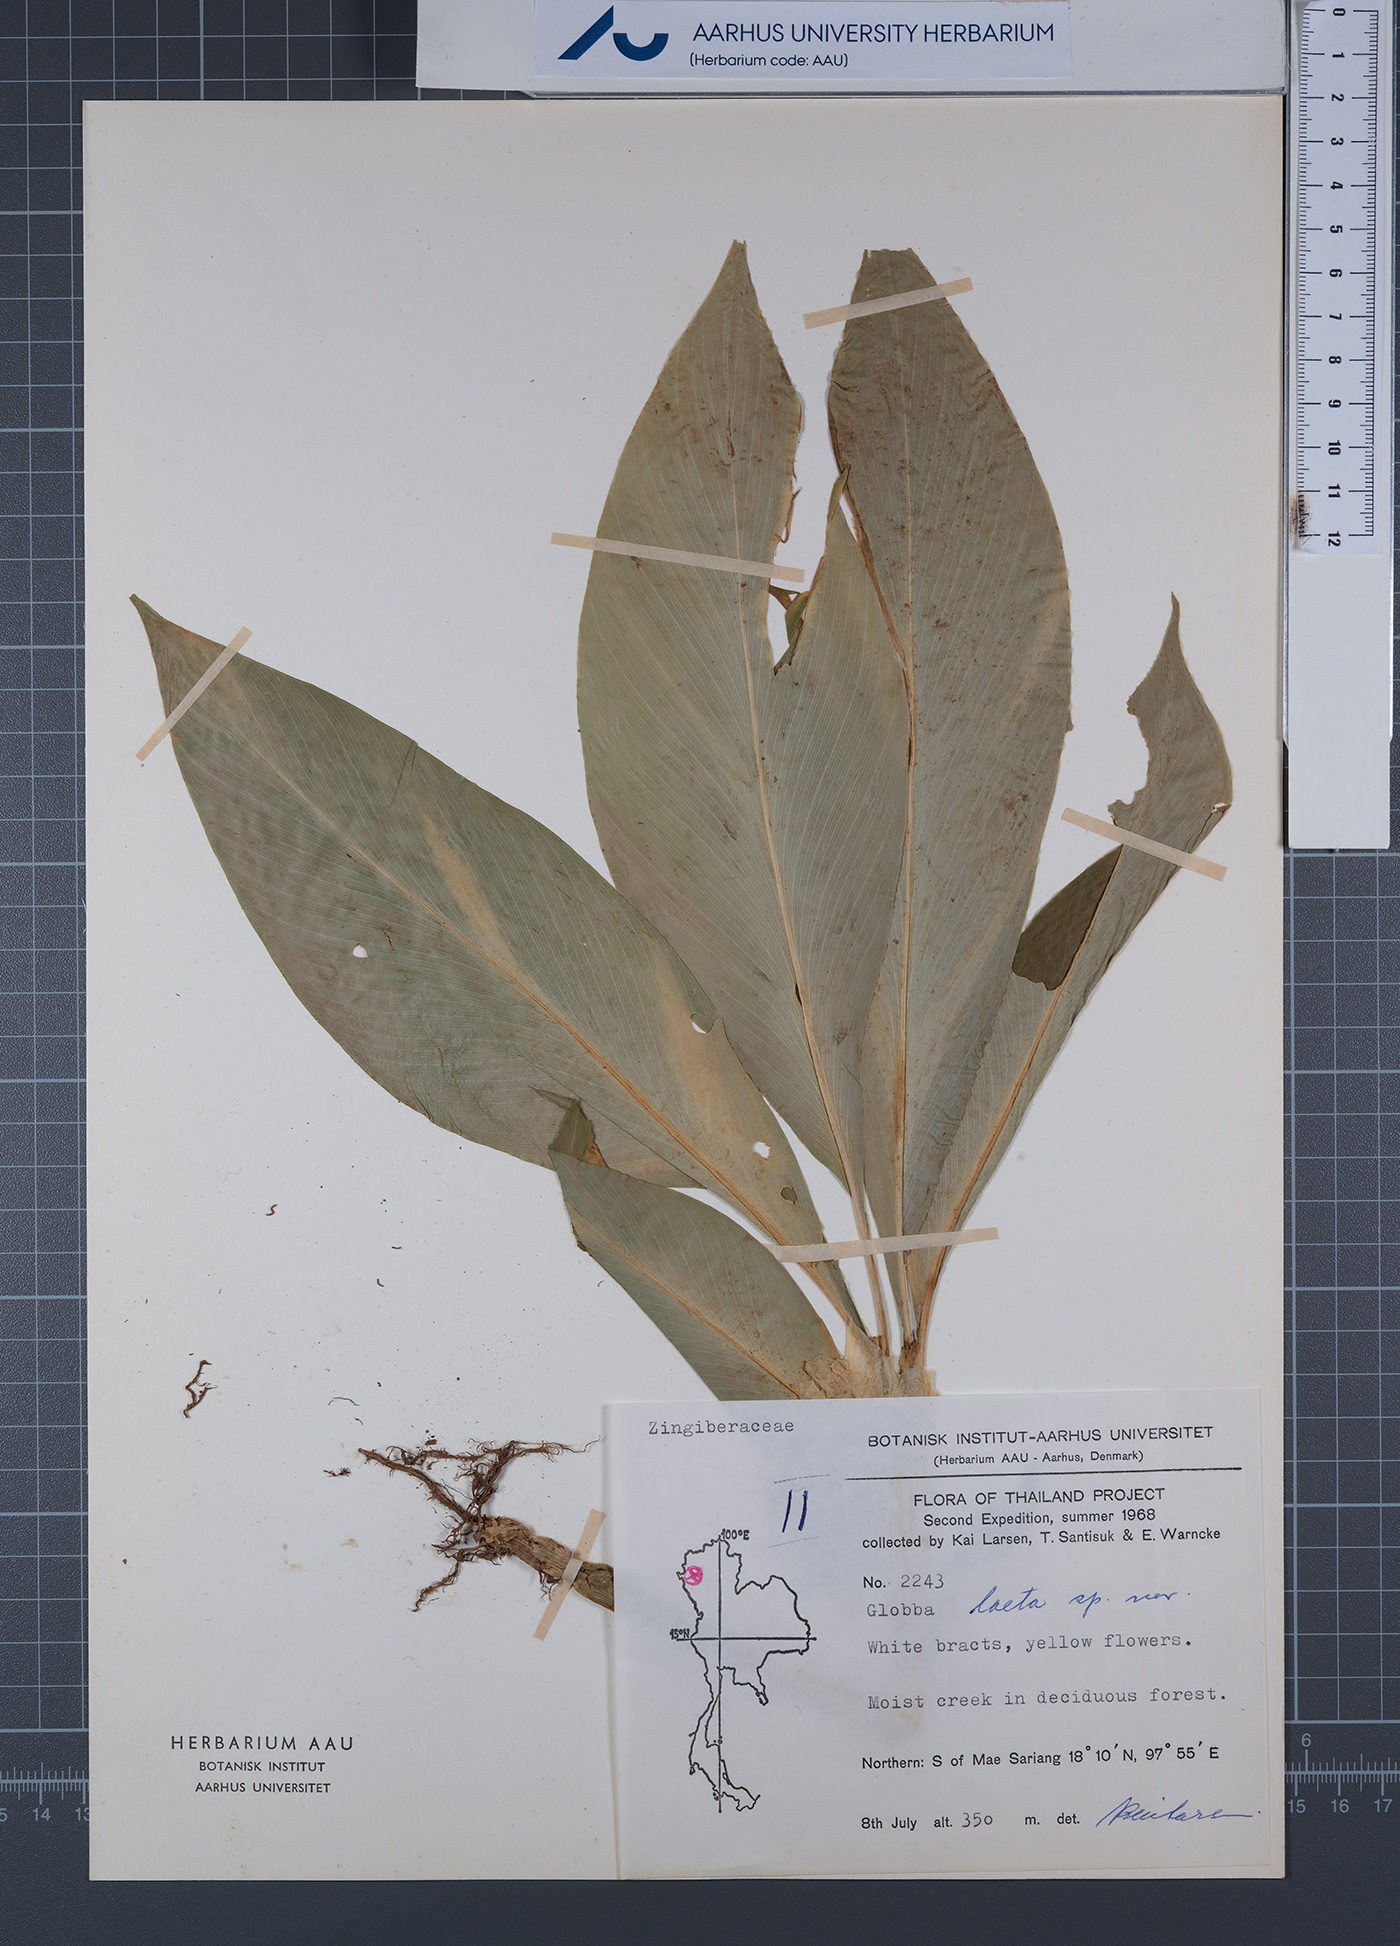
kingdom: Plantae
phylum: Tracheophyta
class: Liliopsida
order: Zingiberales
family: Zingiberaceae
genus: Globba
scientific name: Globba laeta
